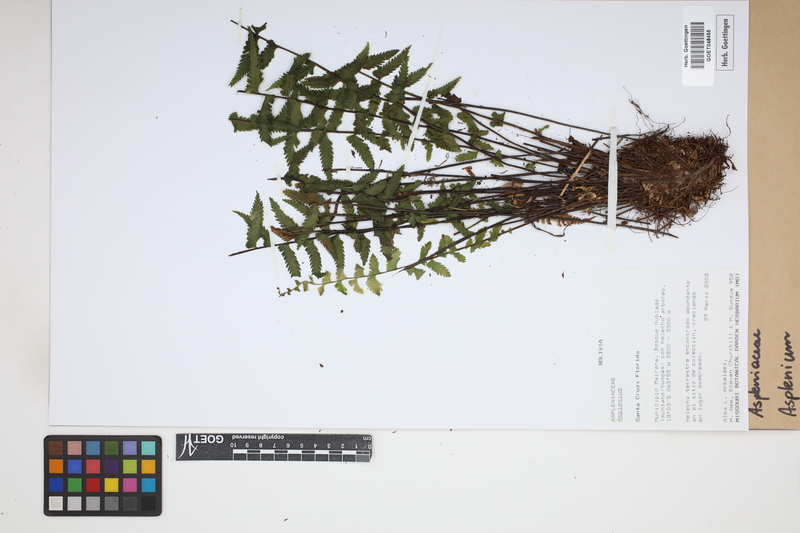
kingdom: Plantae
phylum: Tracheophyta
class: Polypodiopsida
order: Polypodiales
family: Aspleniaceae
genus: Asplenium
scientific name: Asplenium
